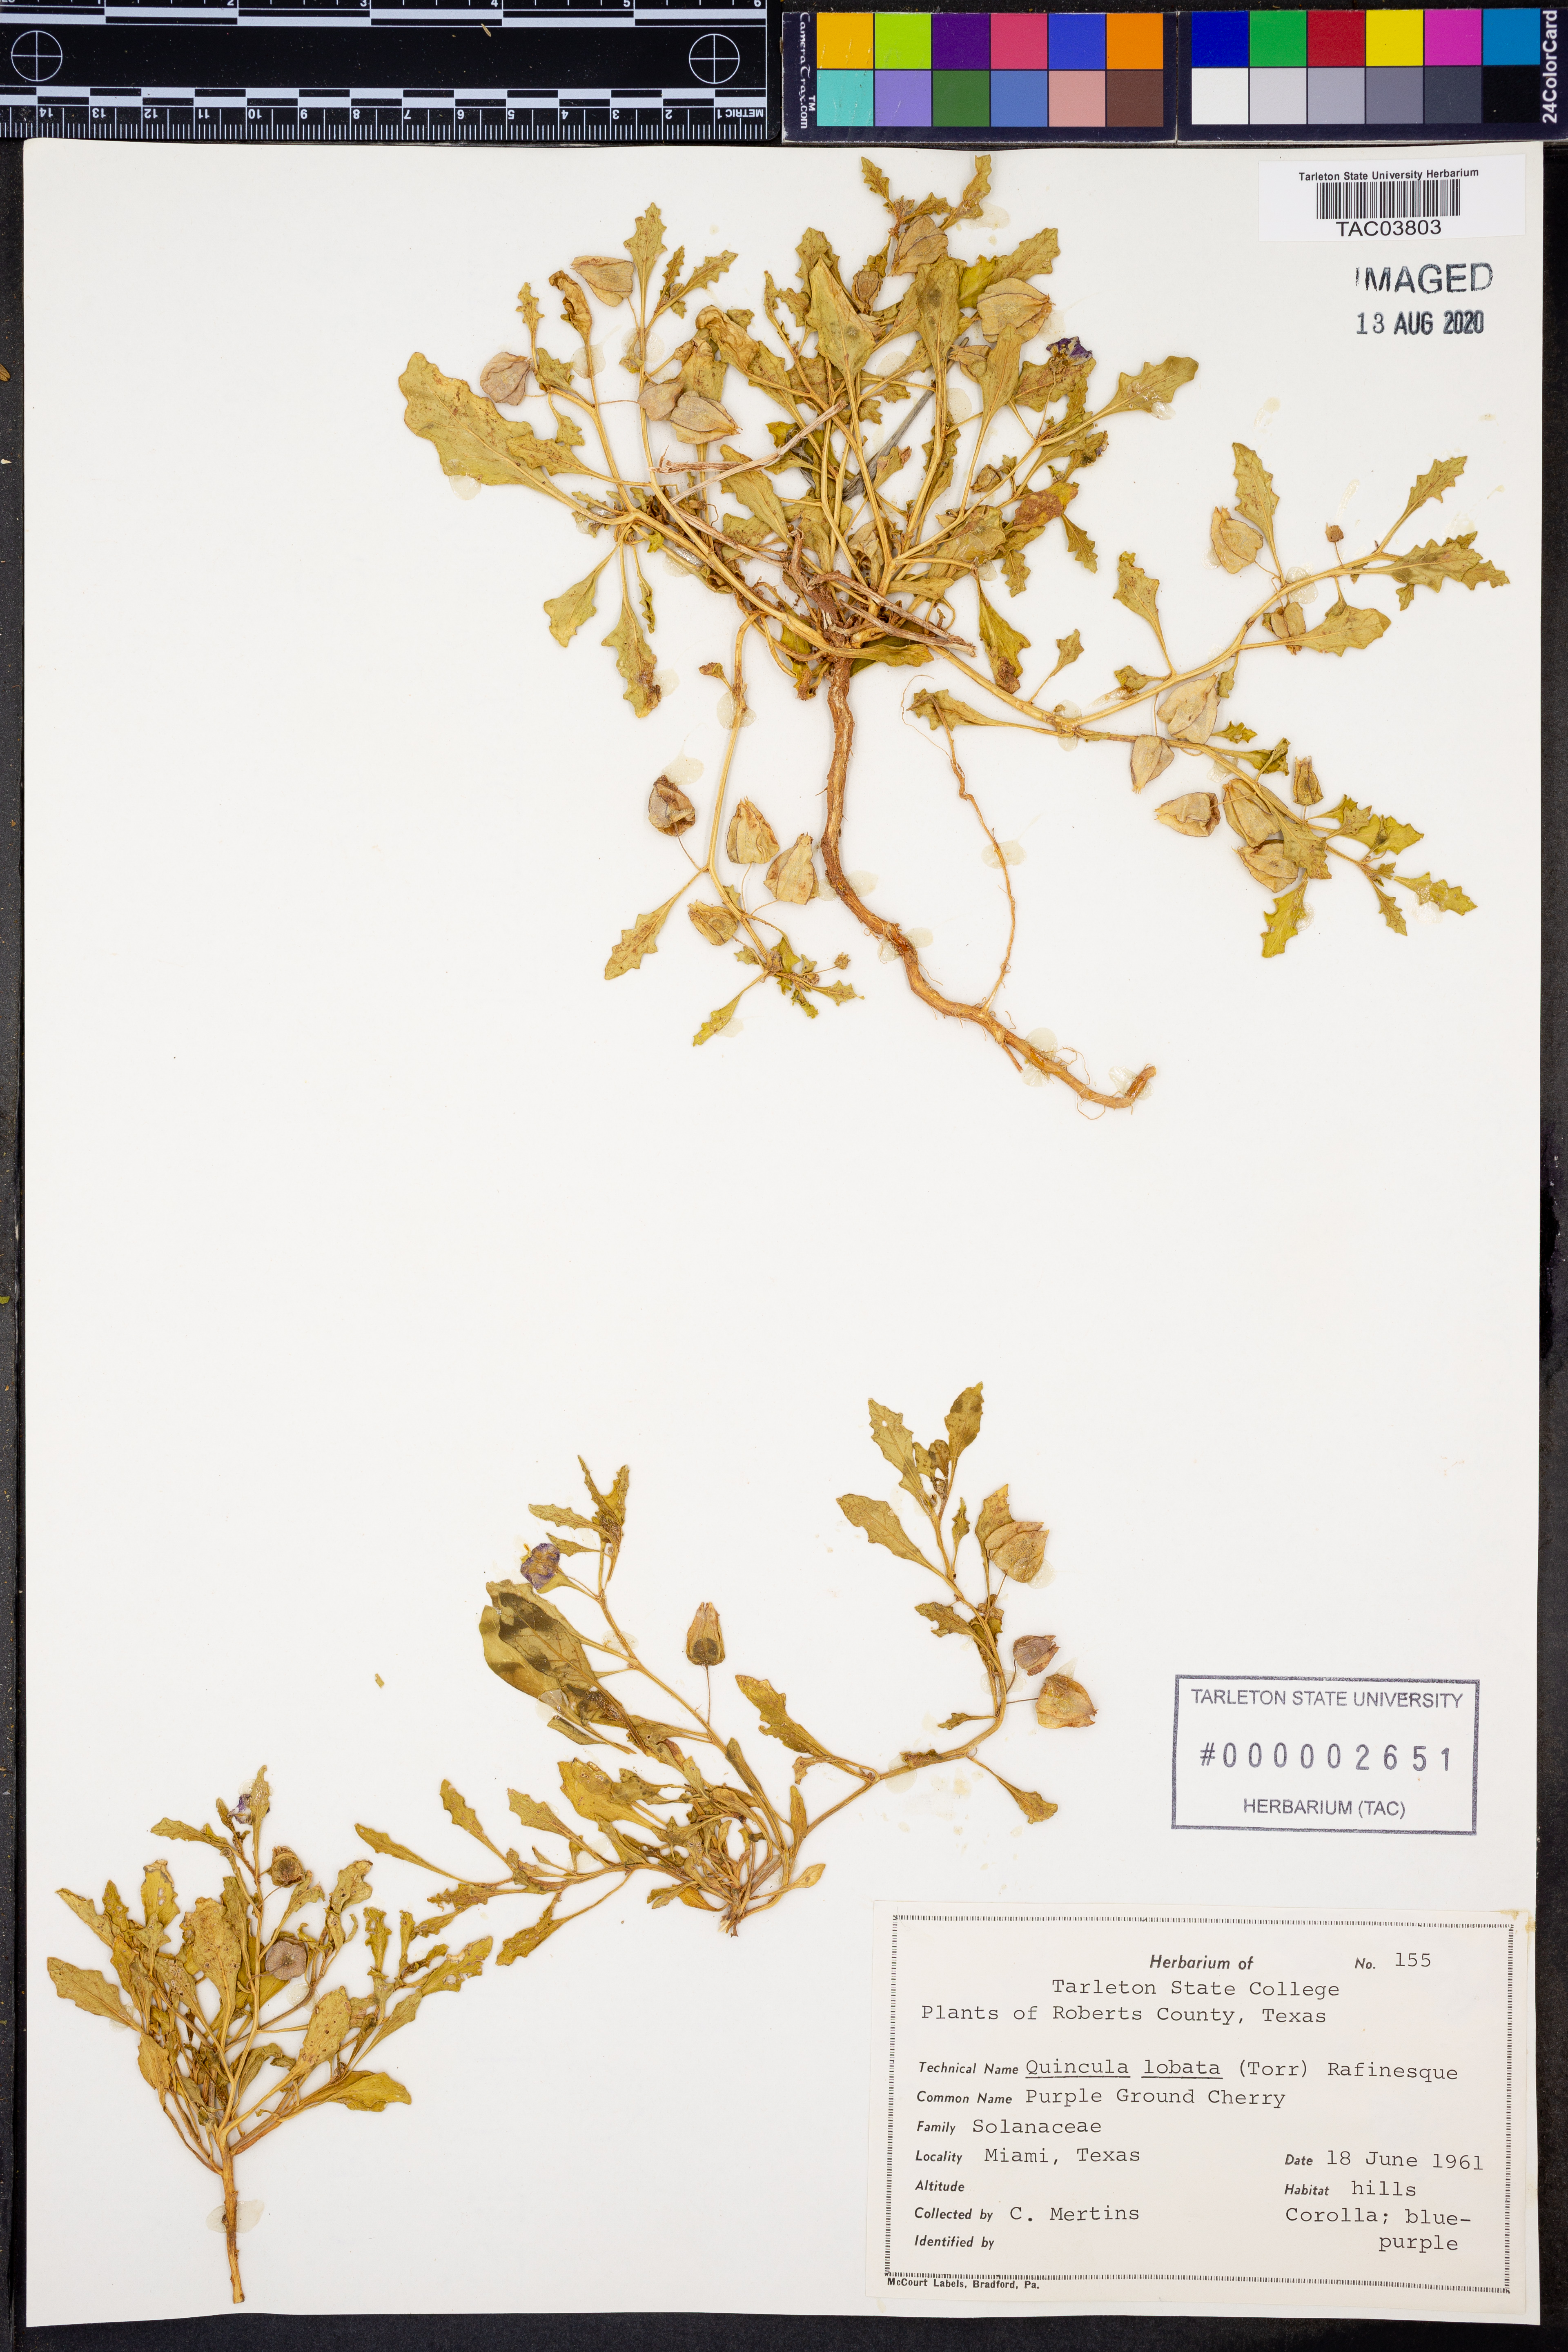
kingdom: Plantae
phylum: Tracheophyta
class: Magnoliopsida
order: Solanales
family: Solanaceae
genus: Quincula
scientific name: Quincula lobata
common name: Purple-ground-cherry
